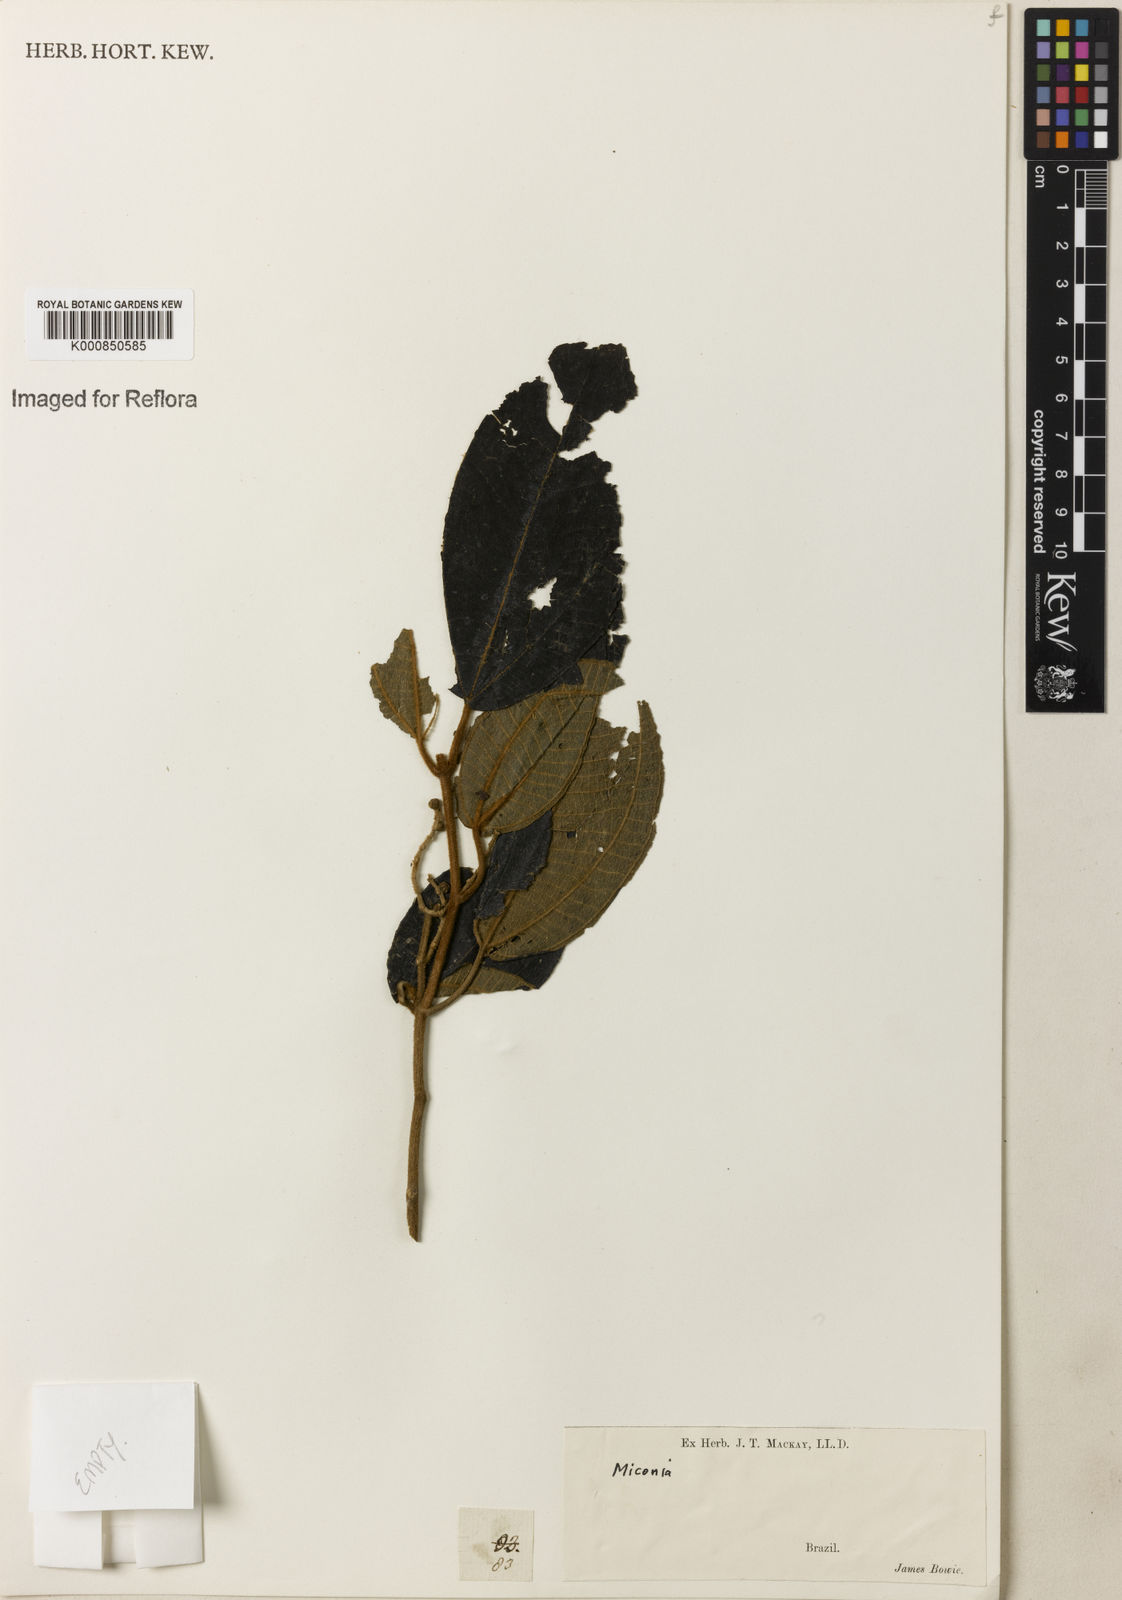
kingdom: Plantae
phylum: Tracheophyta
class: Magnoliopsida
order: Myrtales
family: Melastomataceae
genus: Miconia
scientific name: Miconia
